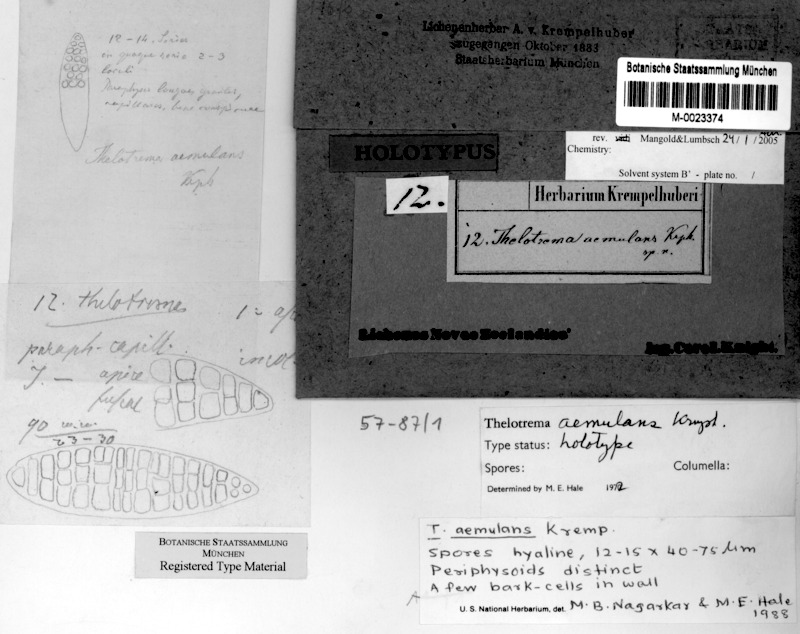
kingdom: Fungi
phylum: Ascomycota
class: Lecanoromycetes
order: Ostropales
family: Graphidaceae
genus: Thelotrema
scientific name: Thelotrema lepadinum
